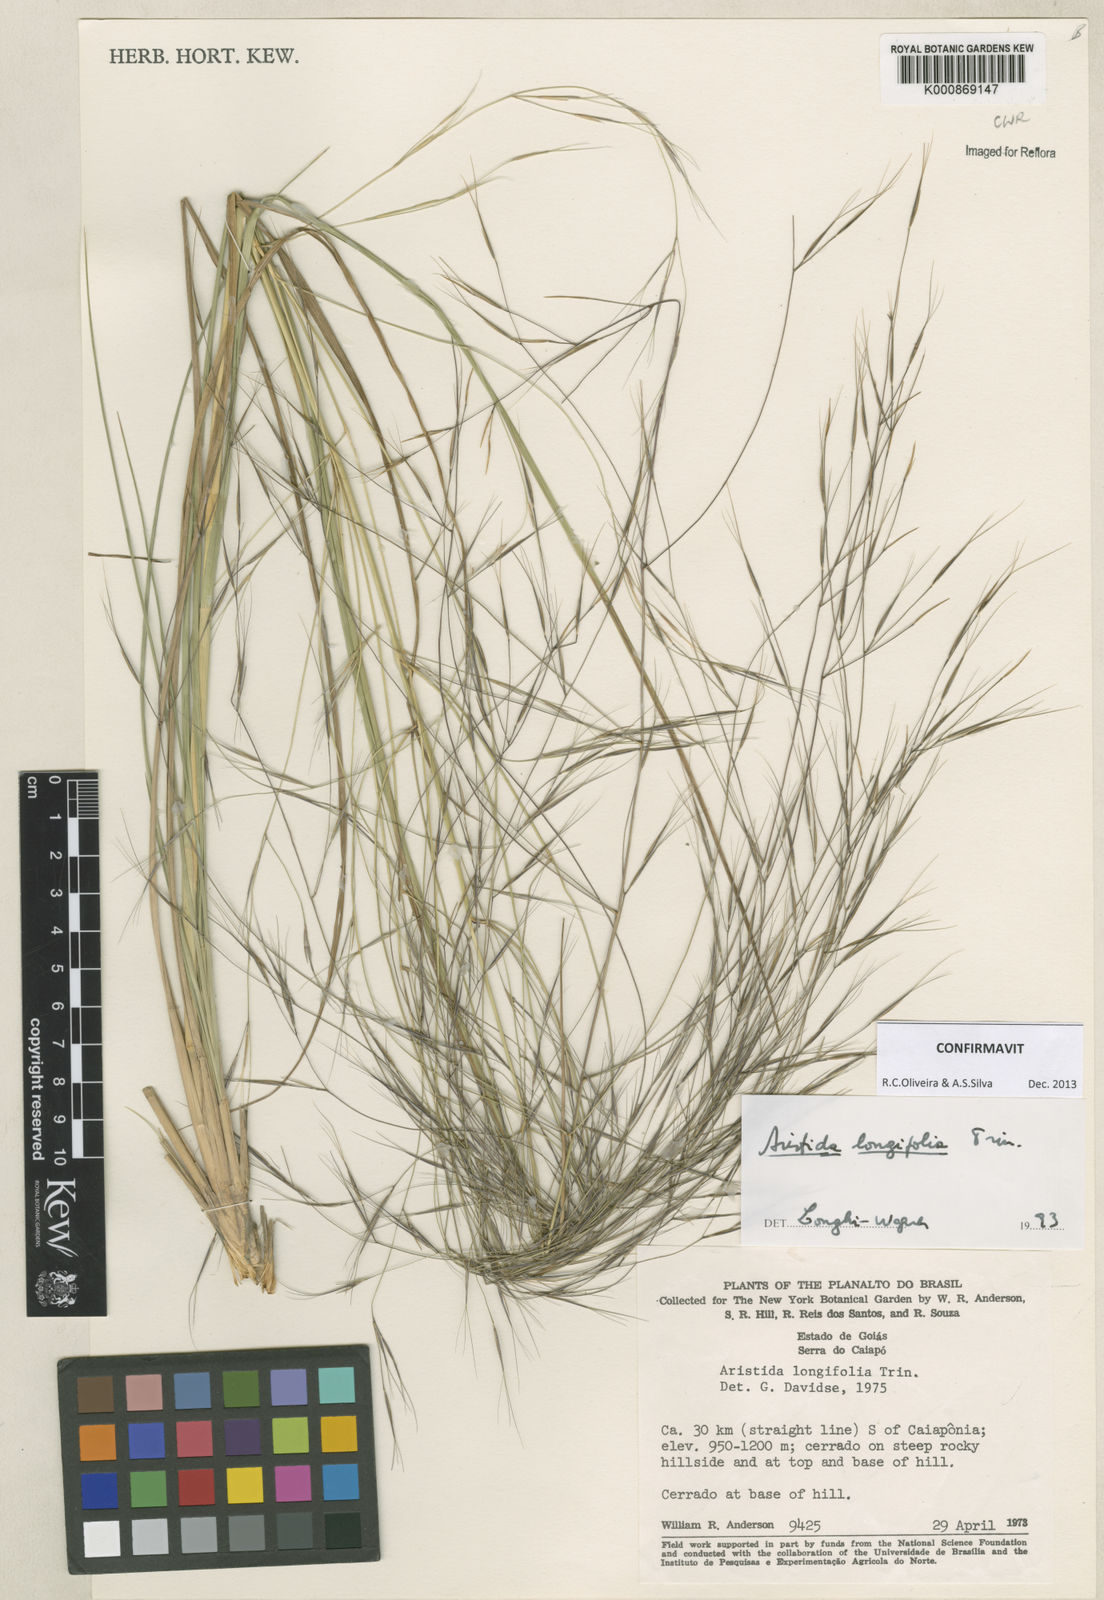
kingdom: Plantae
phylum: Tracheophyta
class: Liliopsida
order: Poales
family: Poaceae
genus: Aristida
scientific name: Aristida longifolia
